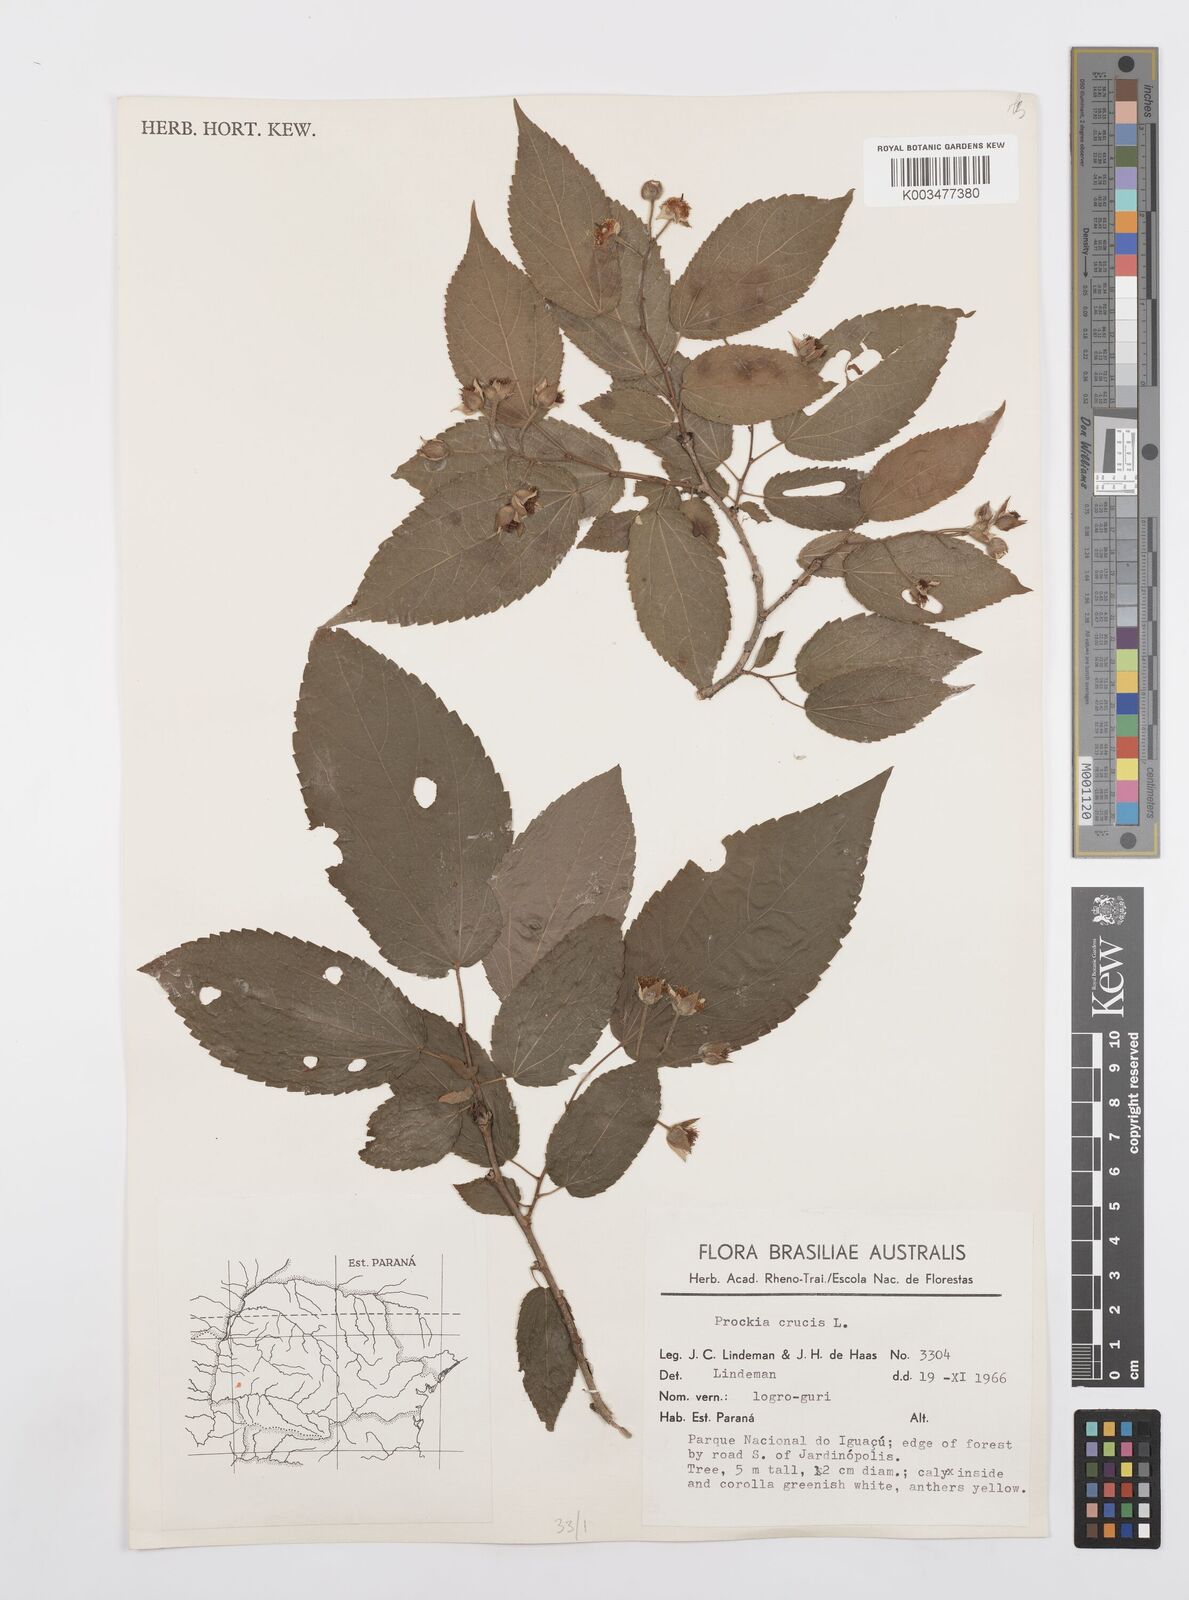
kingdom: Plantae
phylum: Tracheophyta
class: Magnoliopsida
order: Malpighiales
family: Salicaceae
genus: Prockia
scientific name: Prockia crucis
